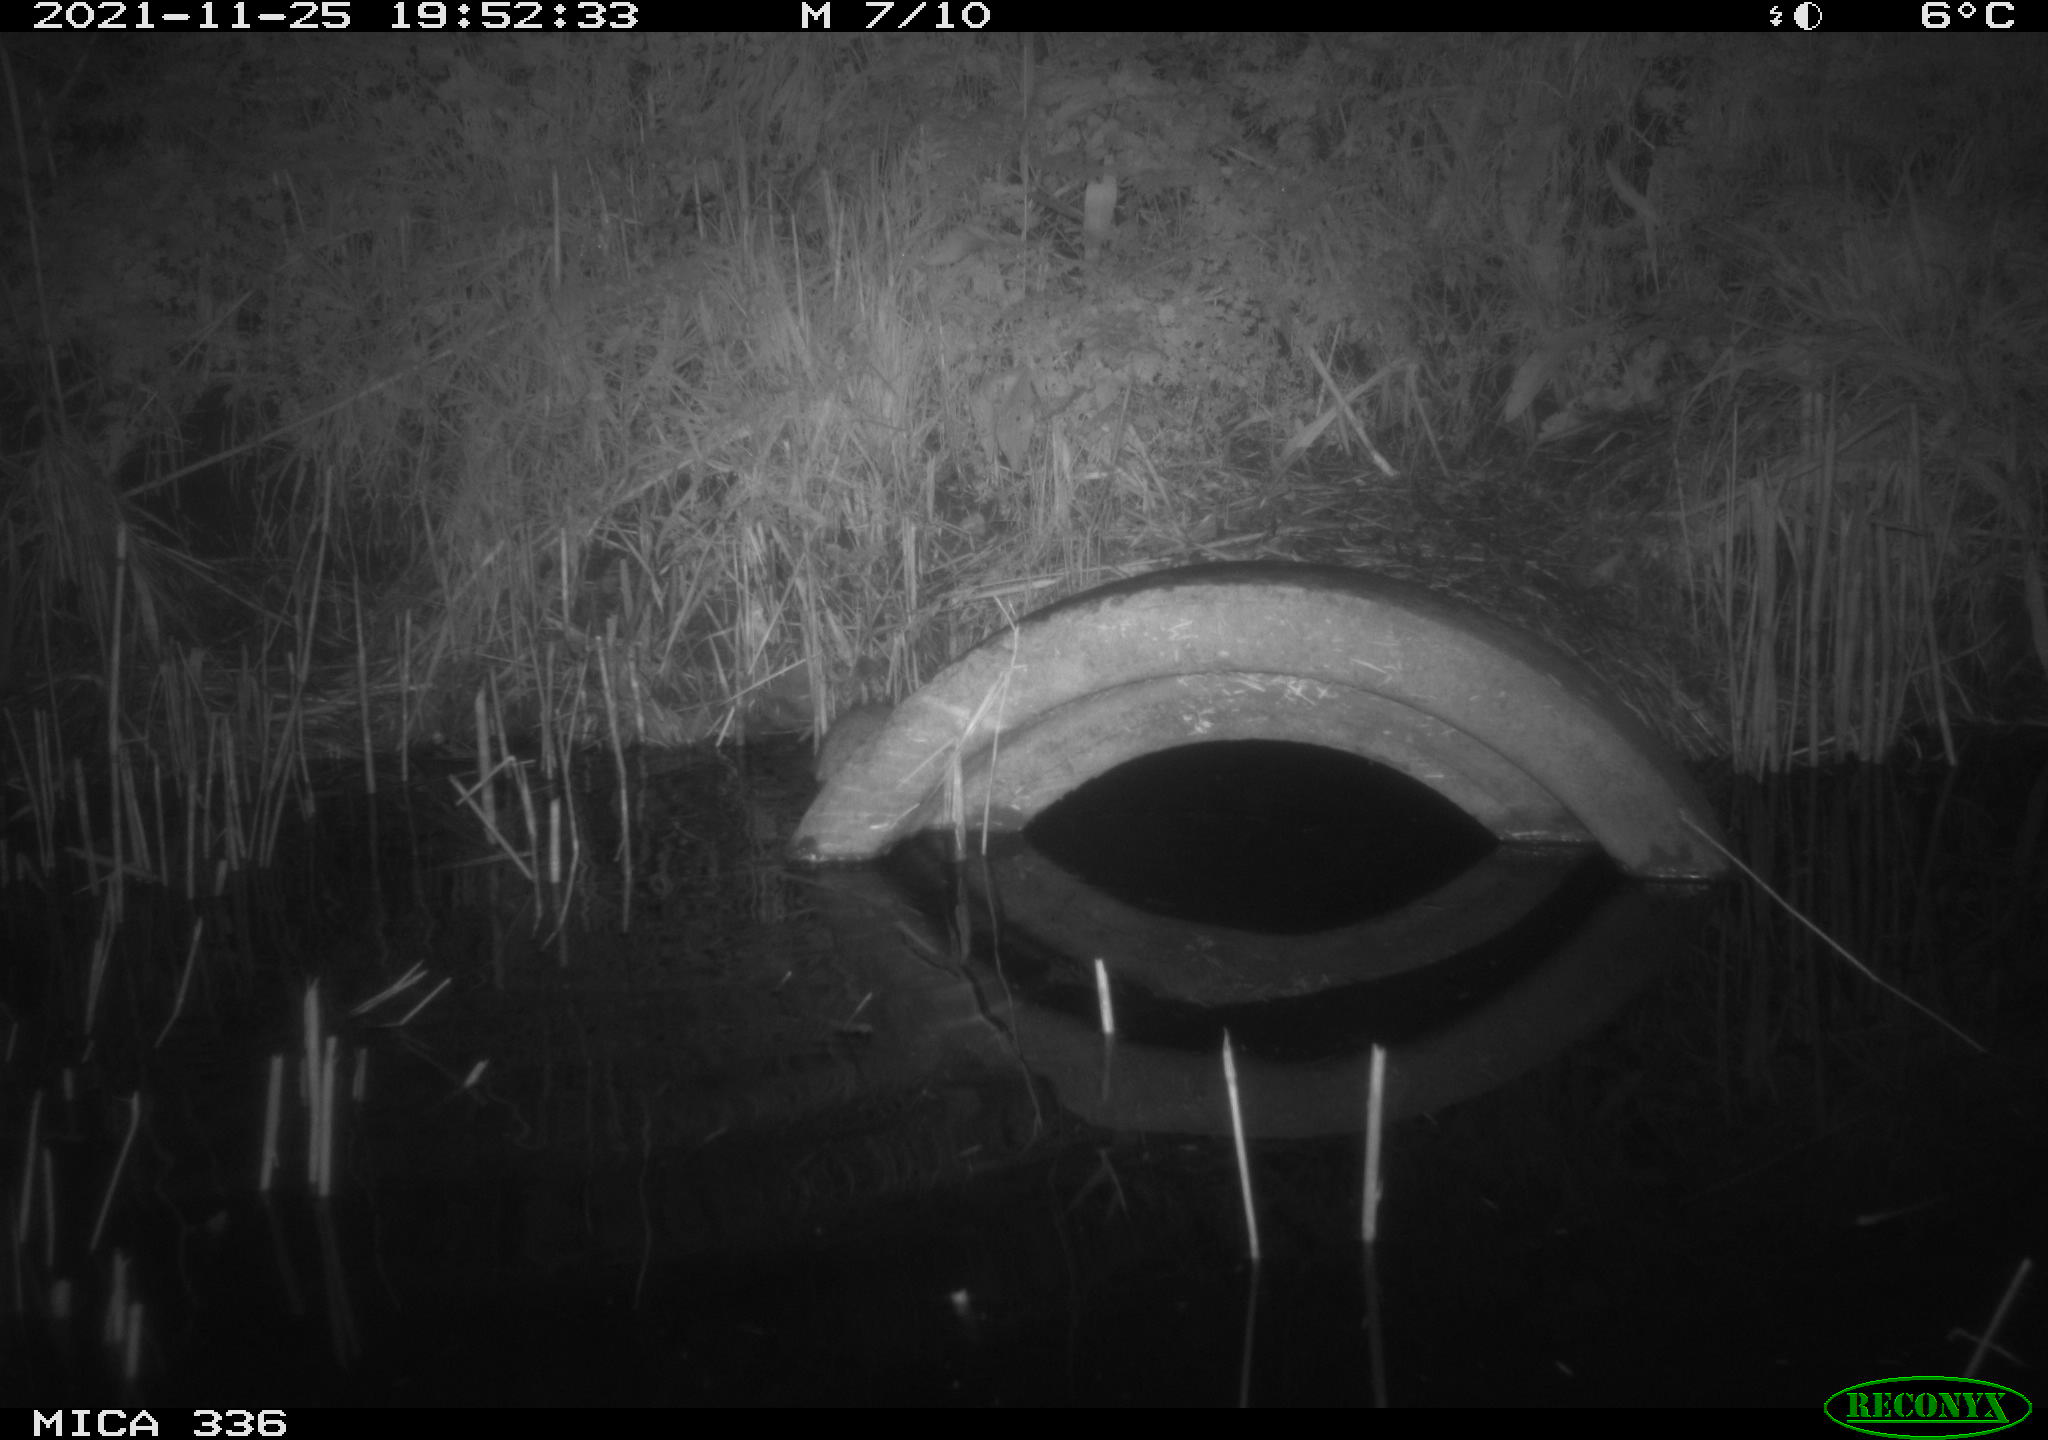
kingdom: Animalia
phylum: Chordata
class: Mammalia
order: Rodentia
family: Muridae
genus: Rattus
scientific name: Rattus norvegicus
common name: Brown rat
